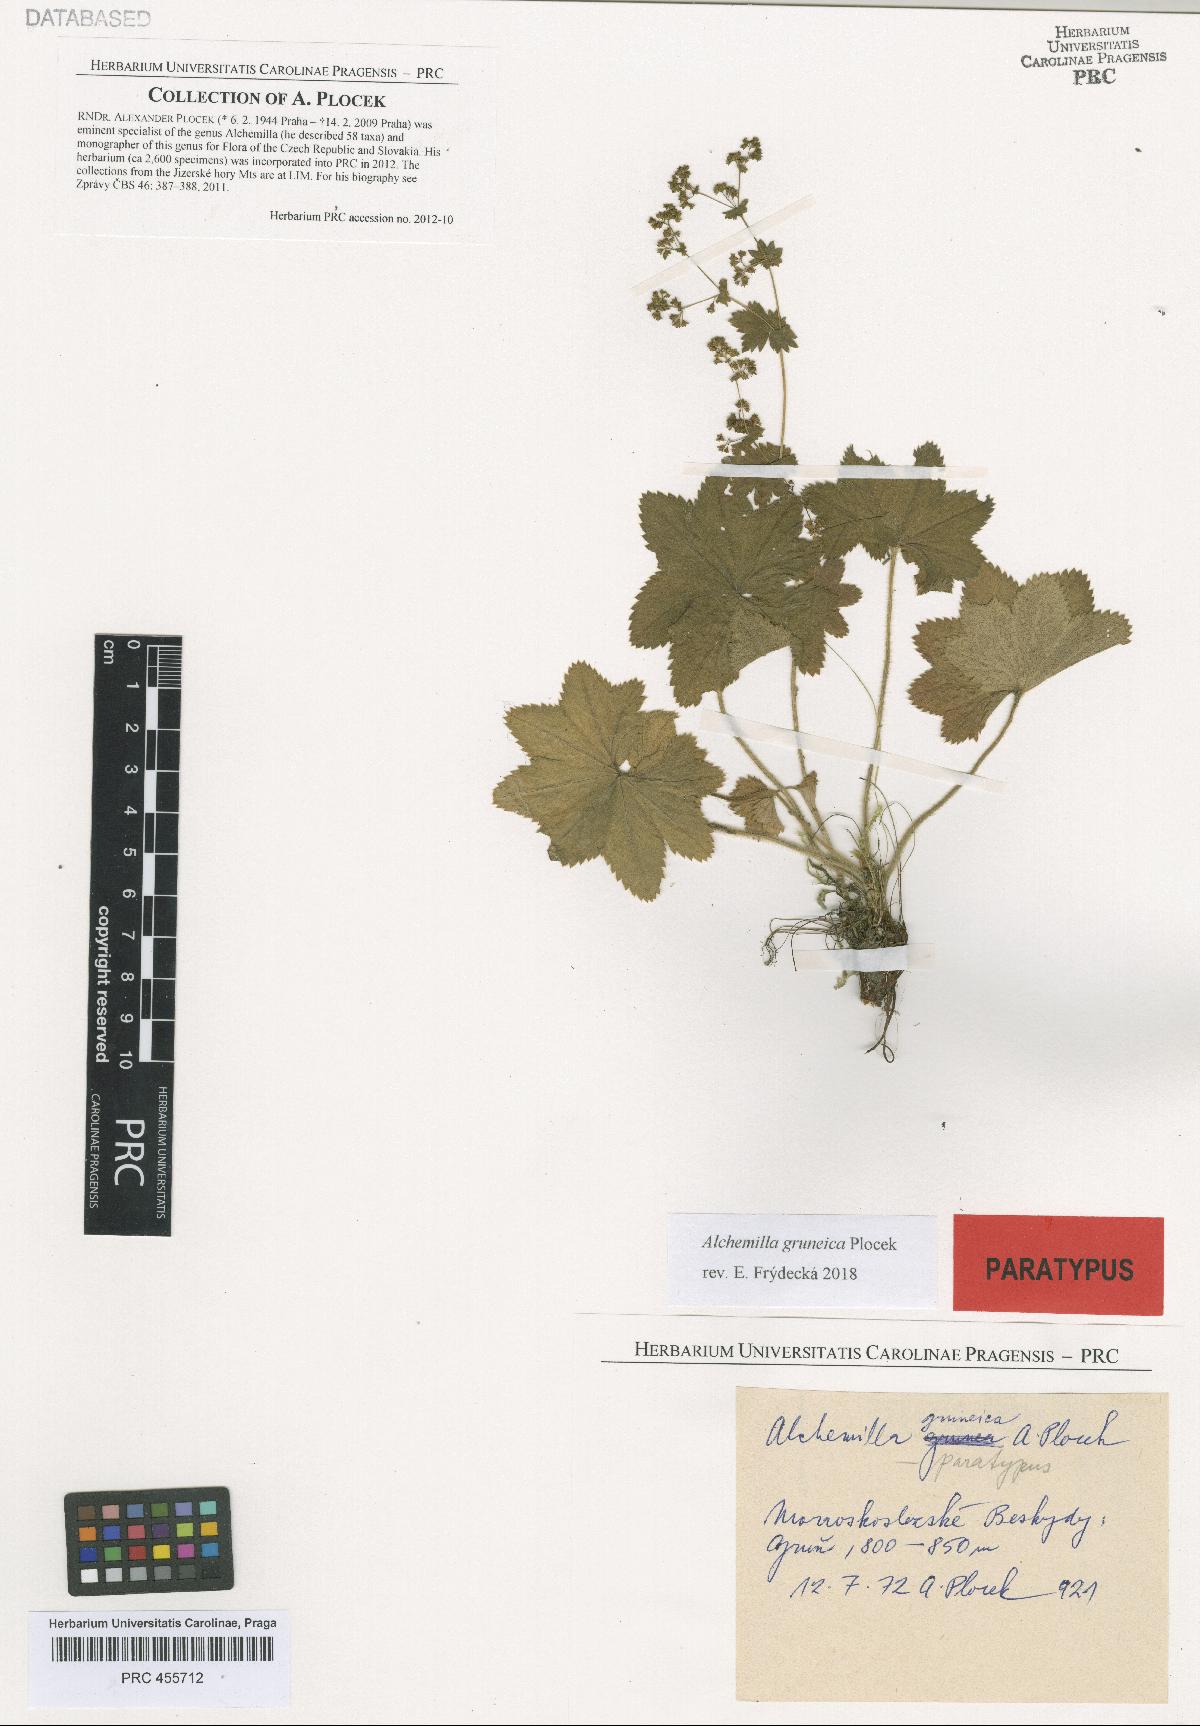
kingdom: Plantae
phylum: Tracheophyta
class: Magnoliopsida
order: Rosales
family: Rosaceae
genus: Alchemilla
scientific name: Alchemilla gruneica
